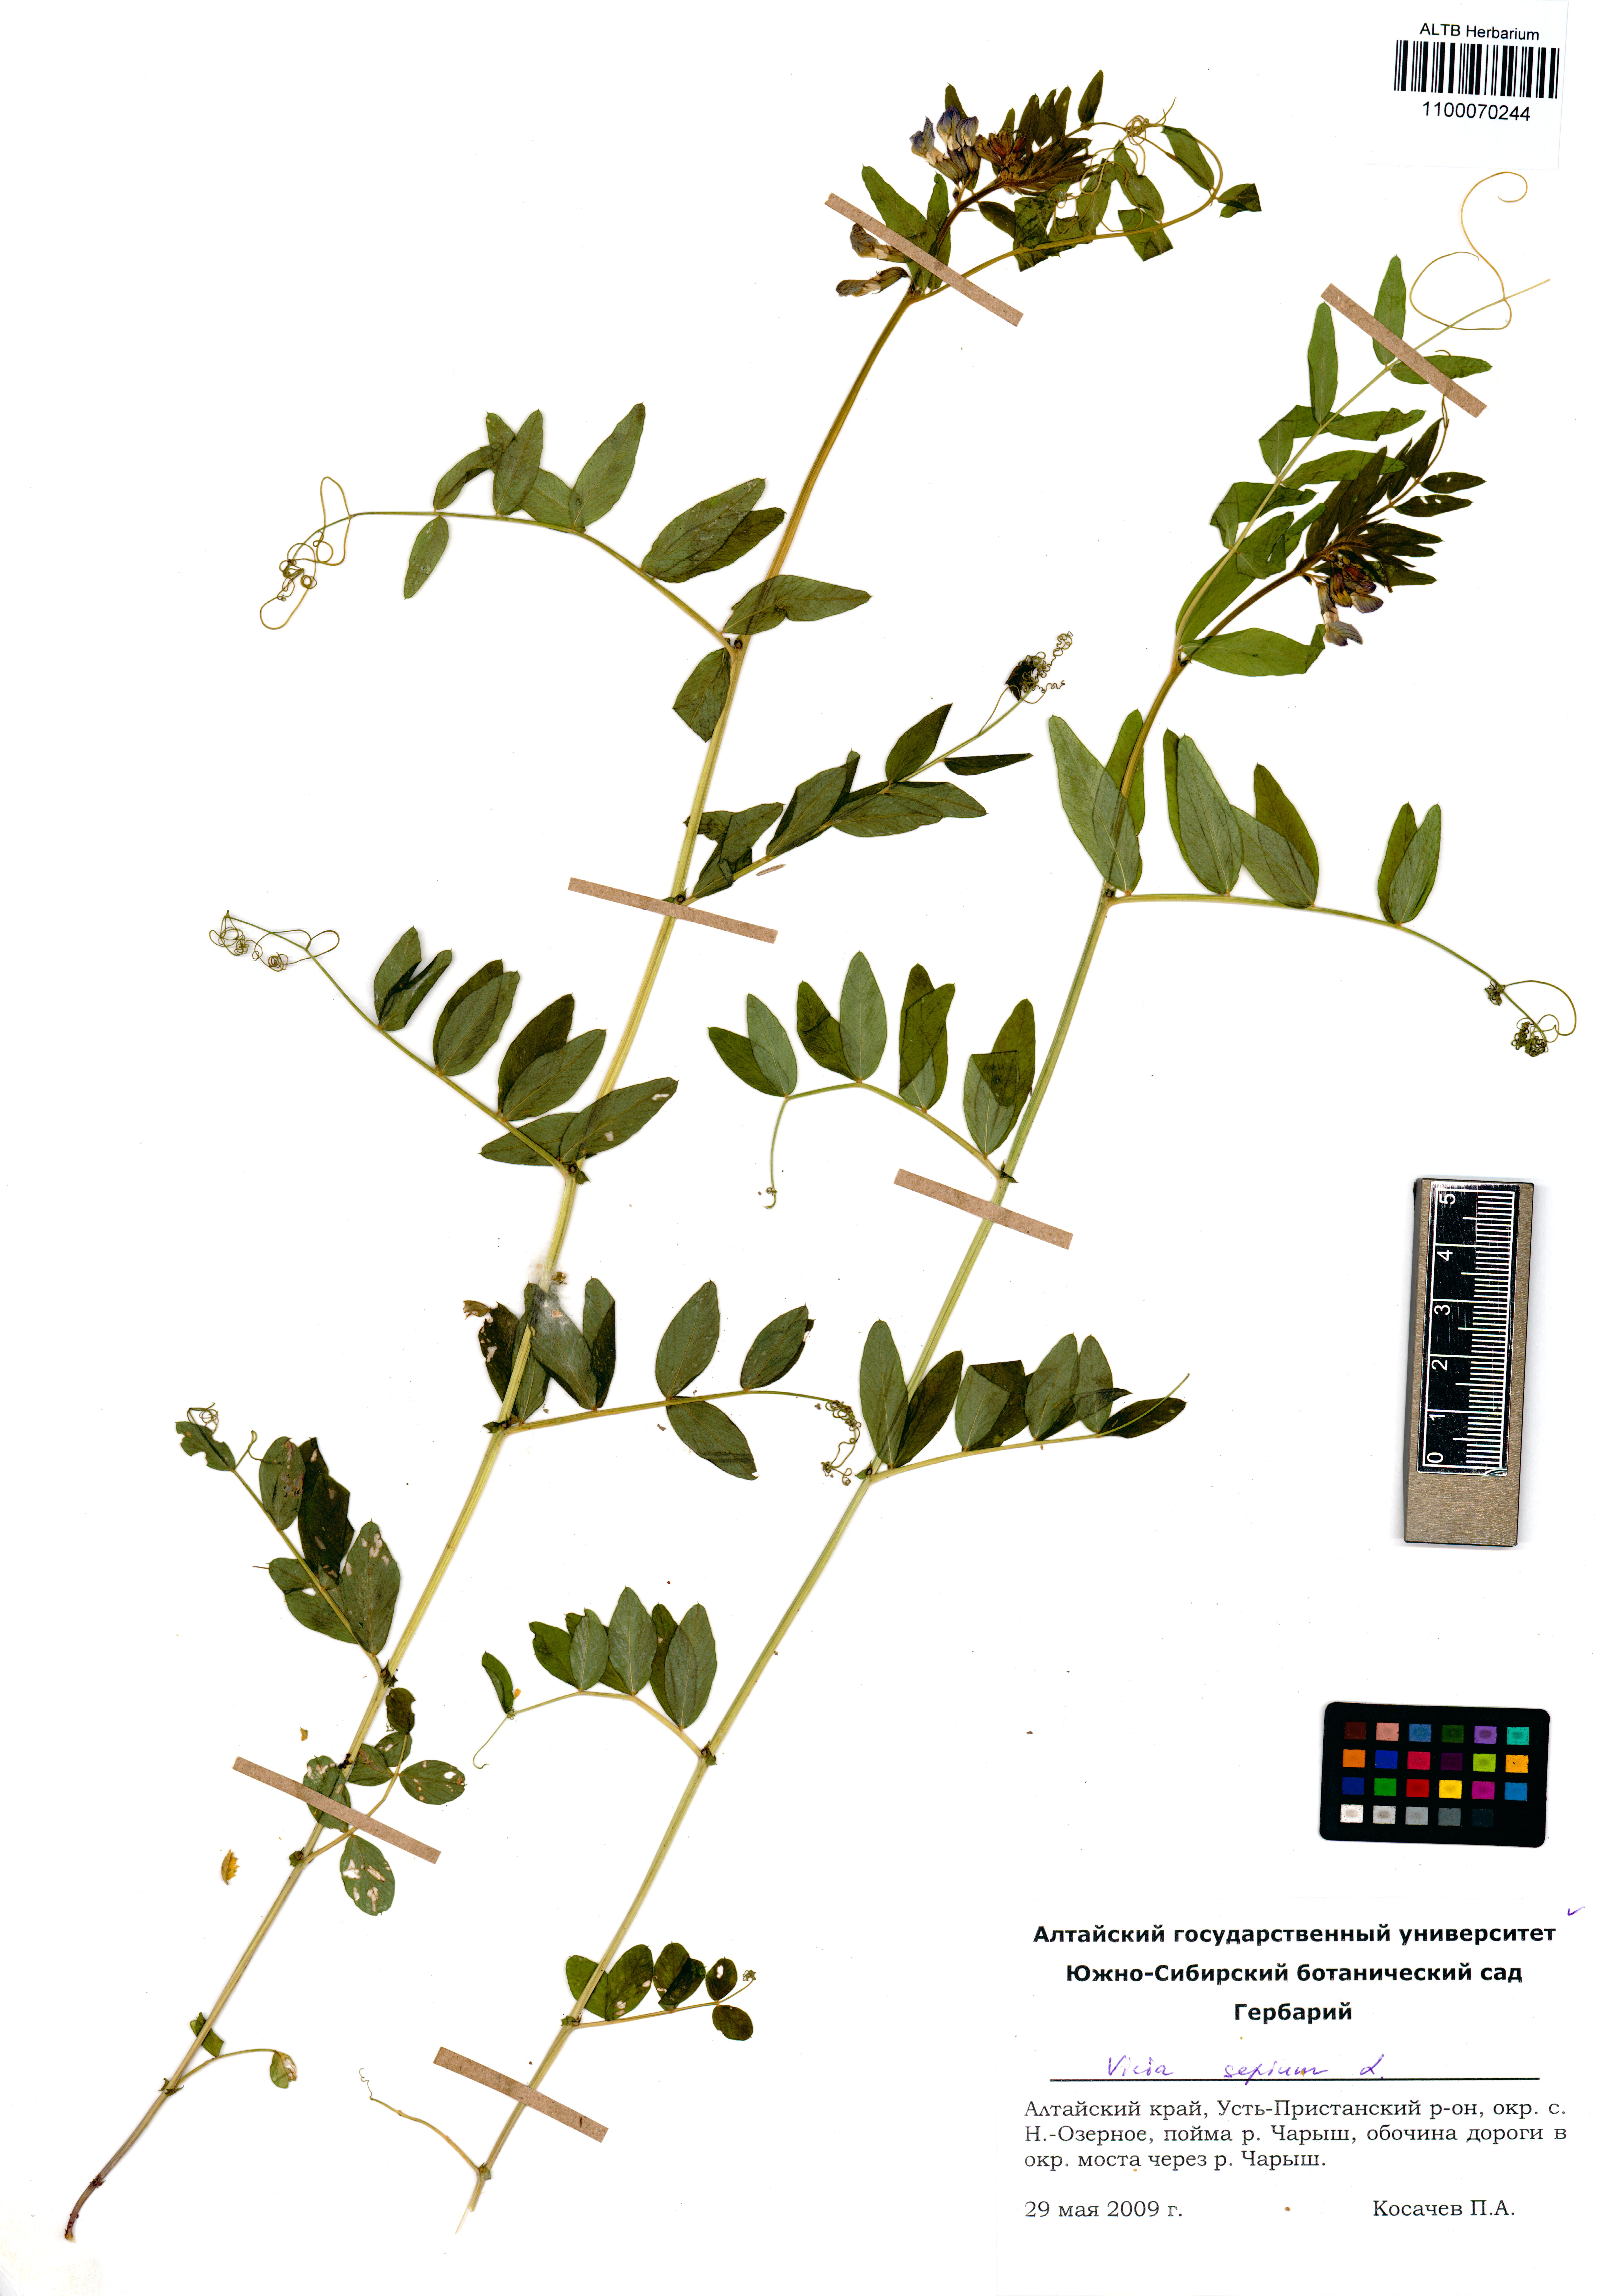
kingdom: Plantae
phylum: Tracheophyta
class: Magnoliopsida
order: Fabales
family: Fabaceae
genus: Vicia
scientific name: Vicia sepium
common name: Bush vetch
